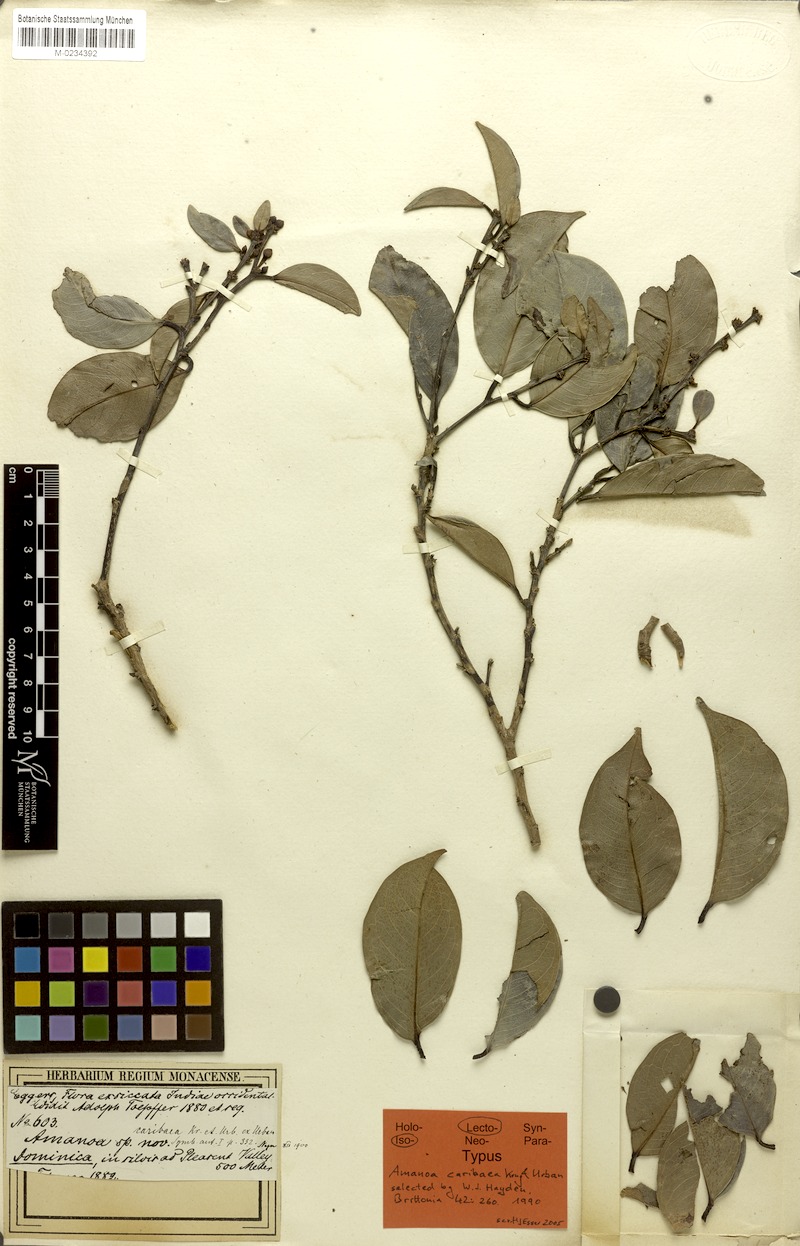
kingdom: Plantae
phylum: Tracheophyta
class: Magnoliopsida
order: Malpighiales
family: Phyllanthaceae
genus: Amanoa
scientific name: Amanoa caribaea
